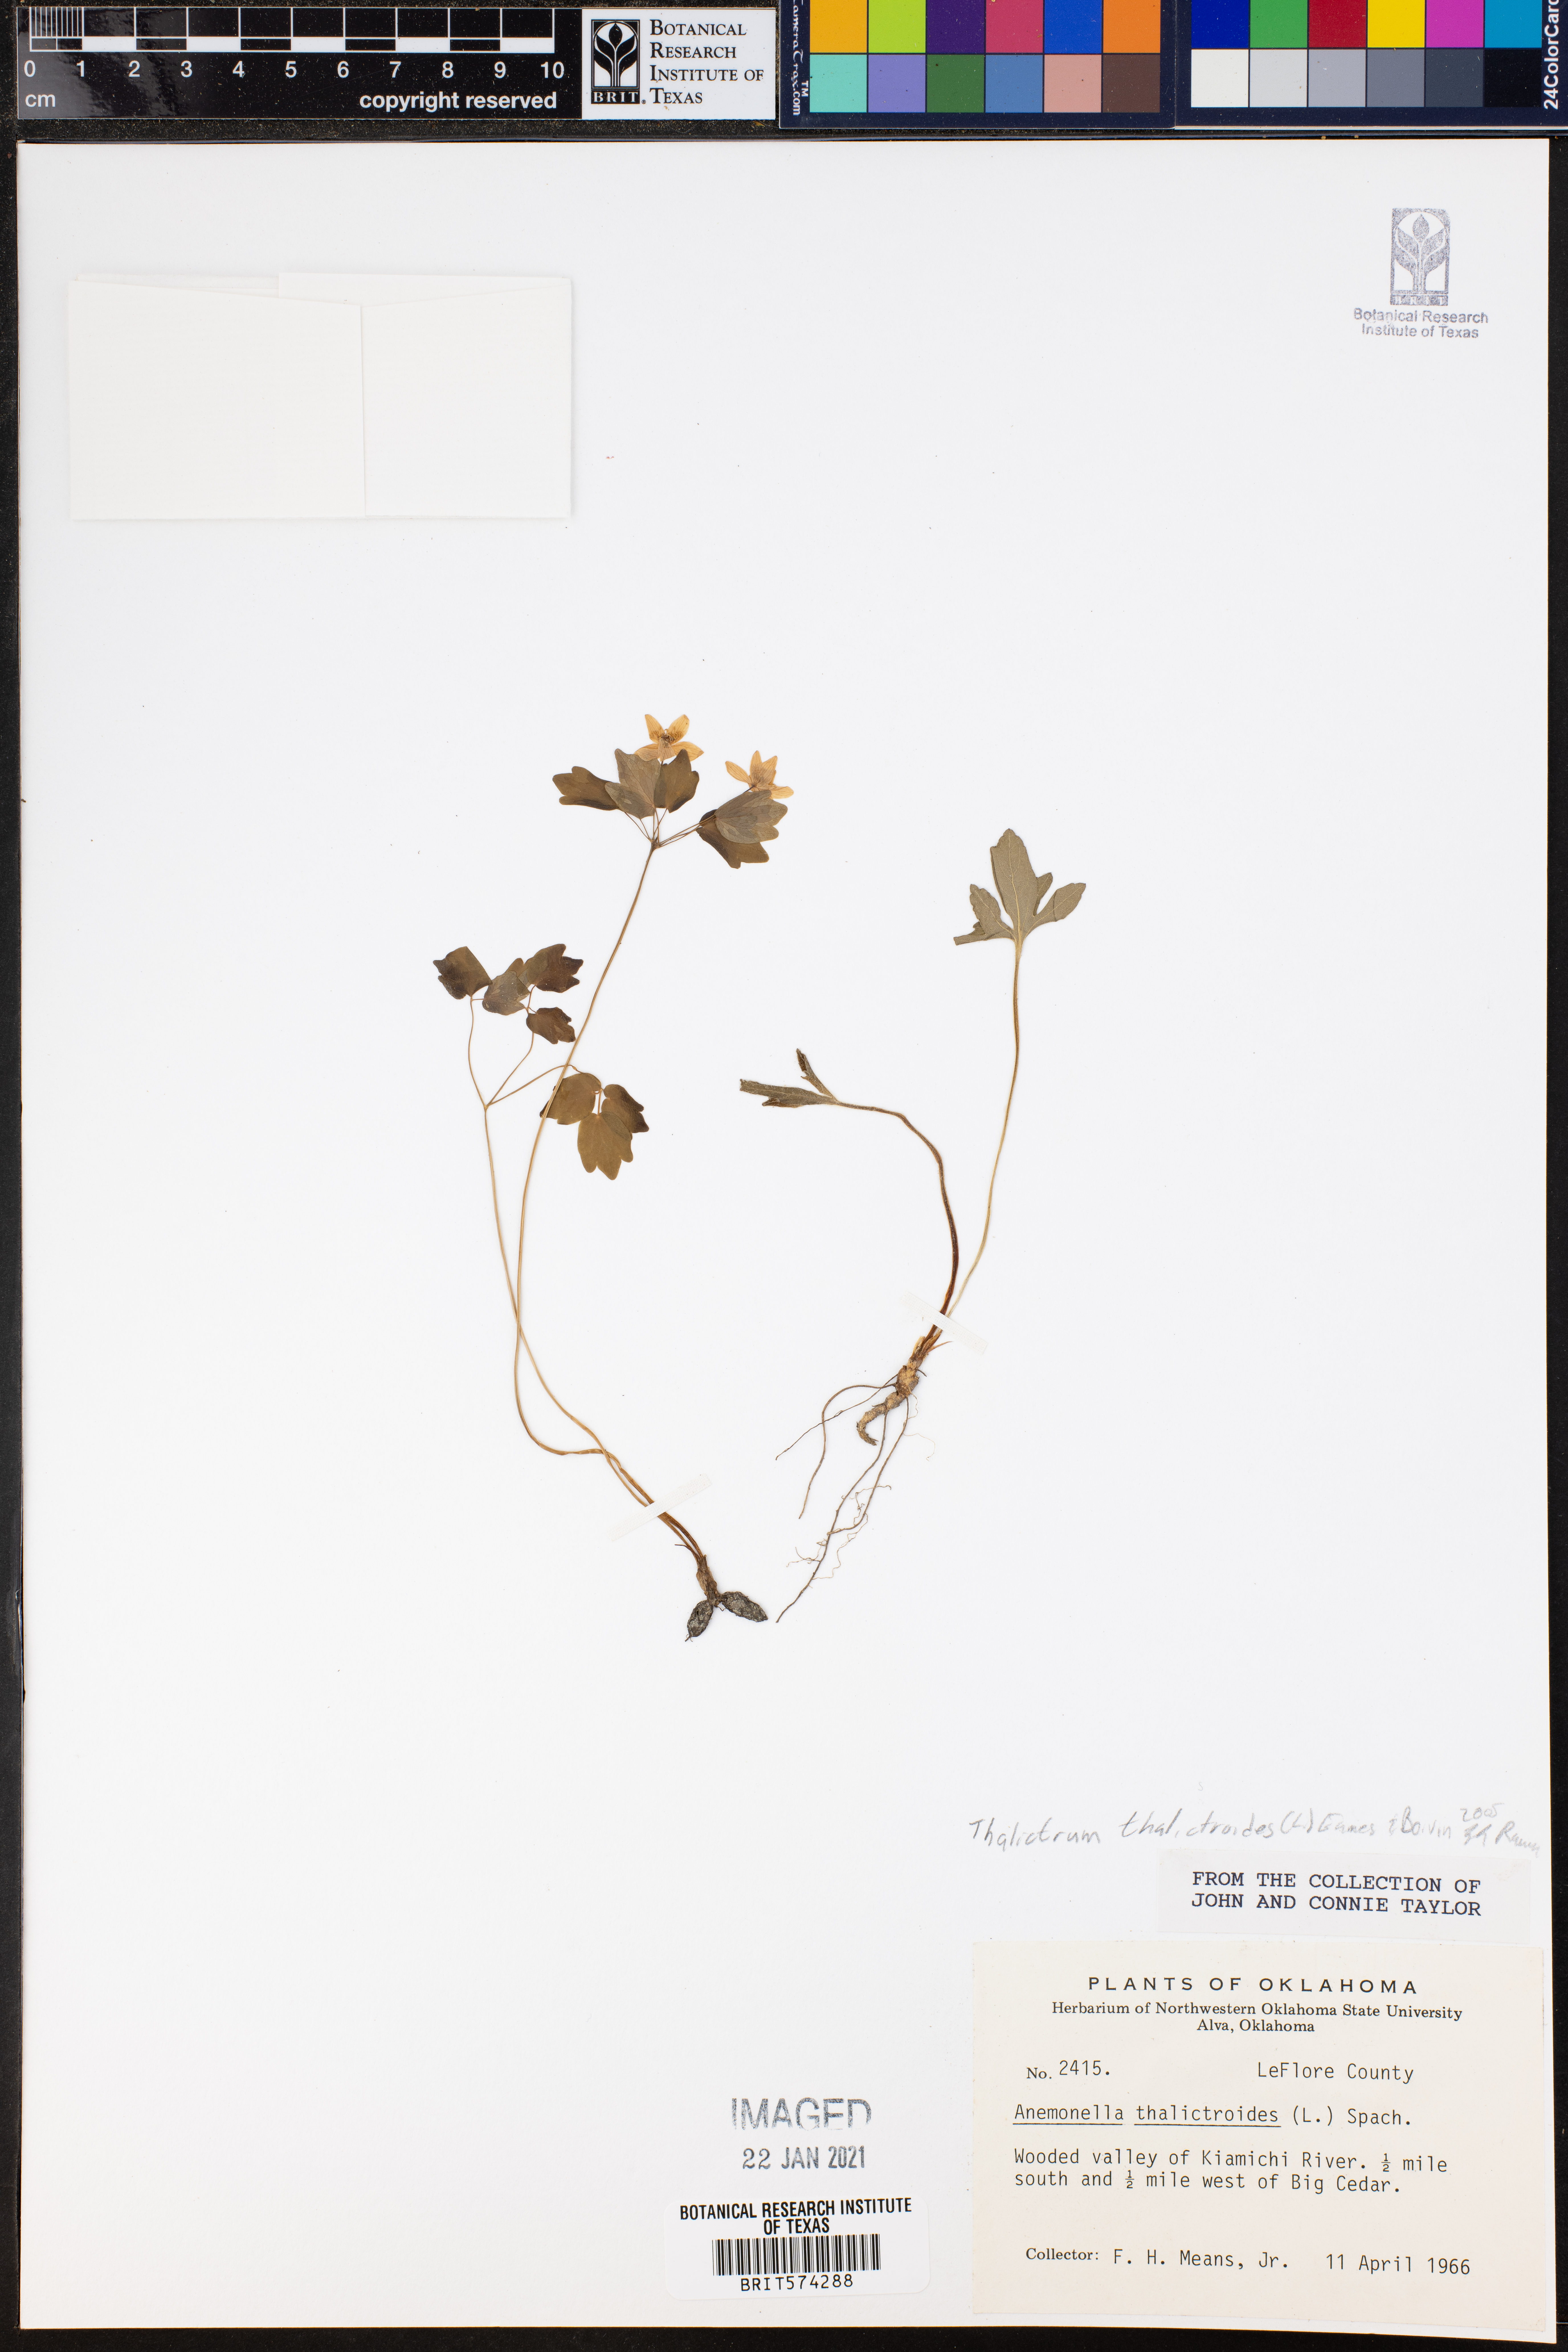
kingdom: Plantae
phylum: Tracheophyta
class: Magnoliopsida
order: Ranunculales
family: Ranunculaceae
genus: Thalictrum
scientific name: Thalictrum thalictroides
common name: Rue-anemone
